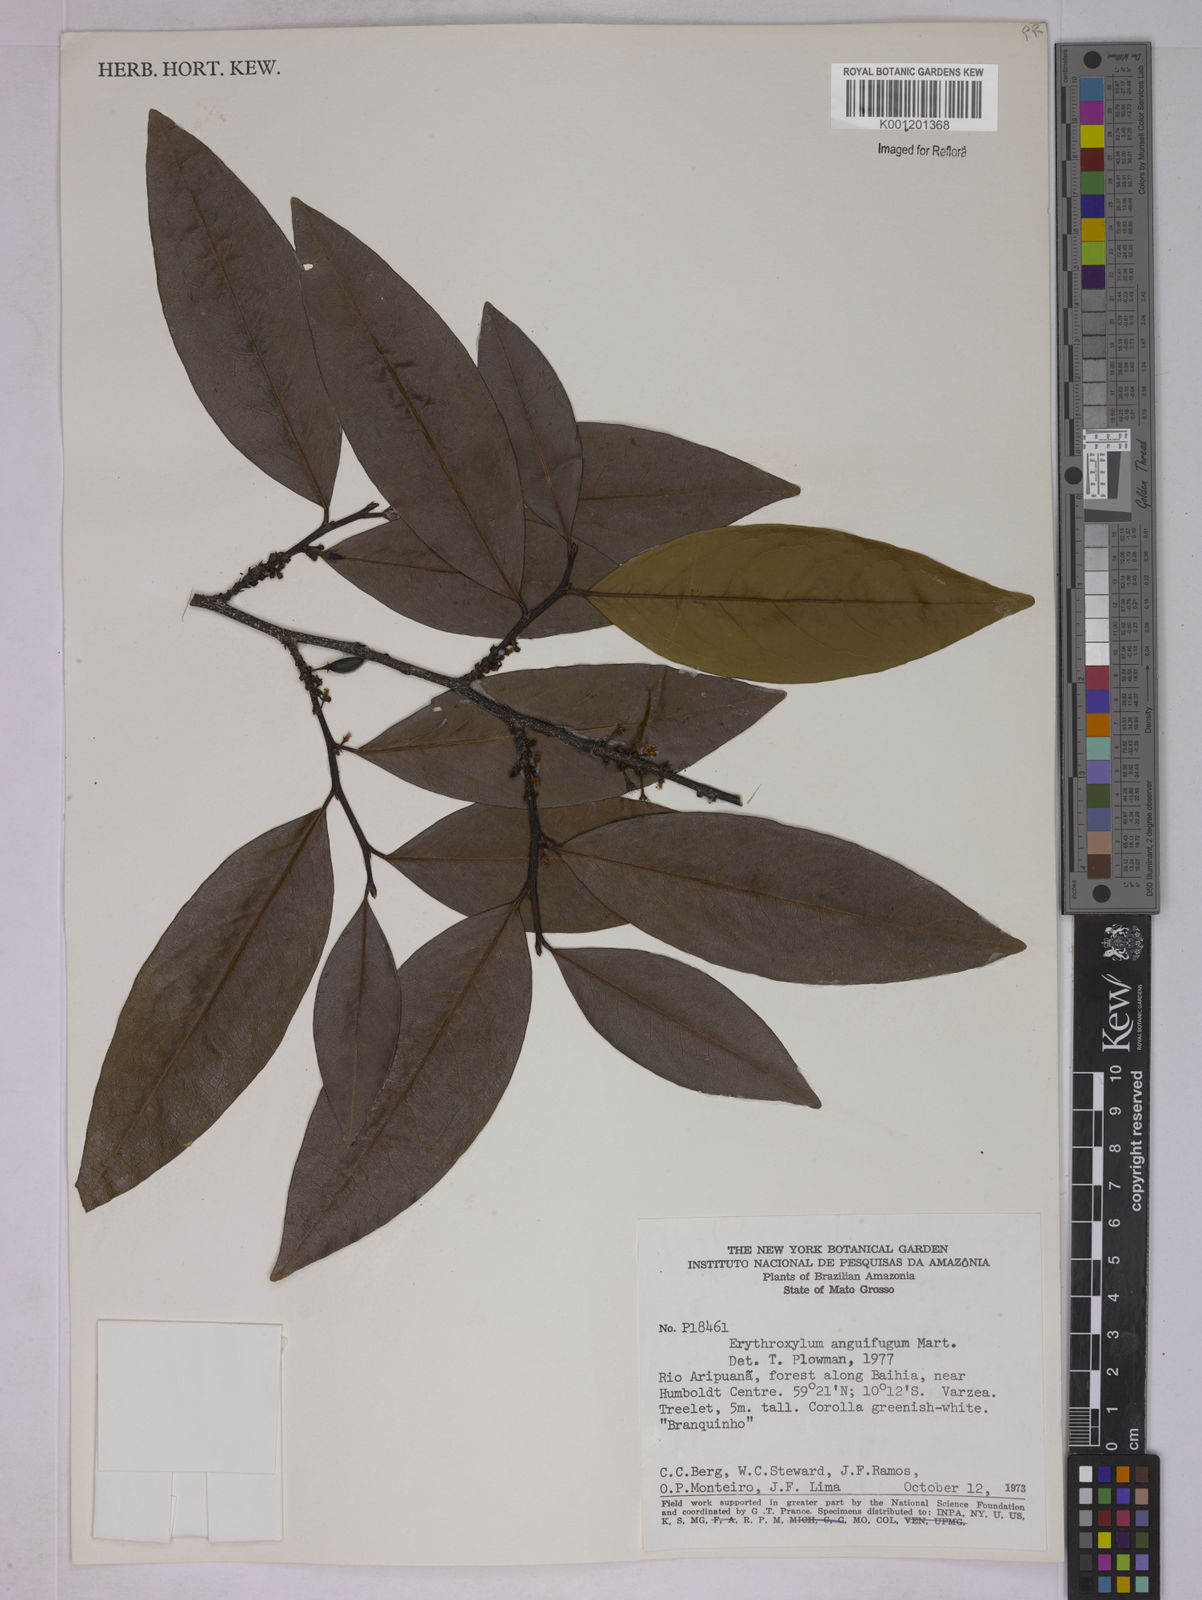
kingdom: Plantae
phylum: Tracheophyta
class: Magnoliopsida
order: Malpighiales
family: Erythroxylaceae
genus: Erythroxylum
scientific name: Erythroxylum anguifugum
